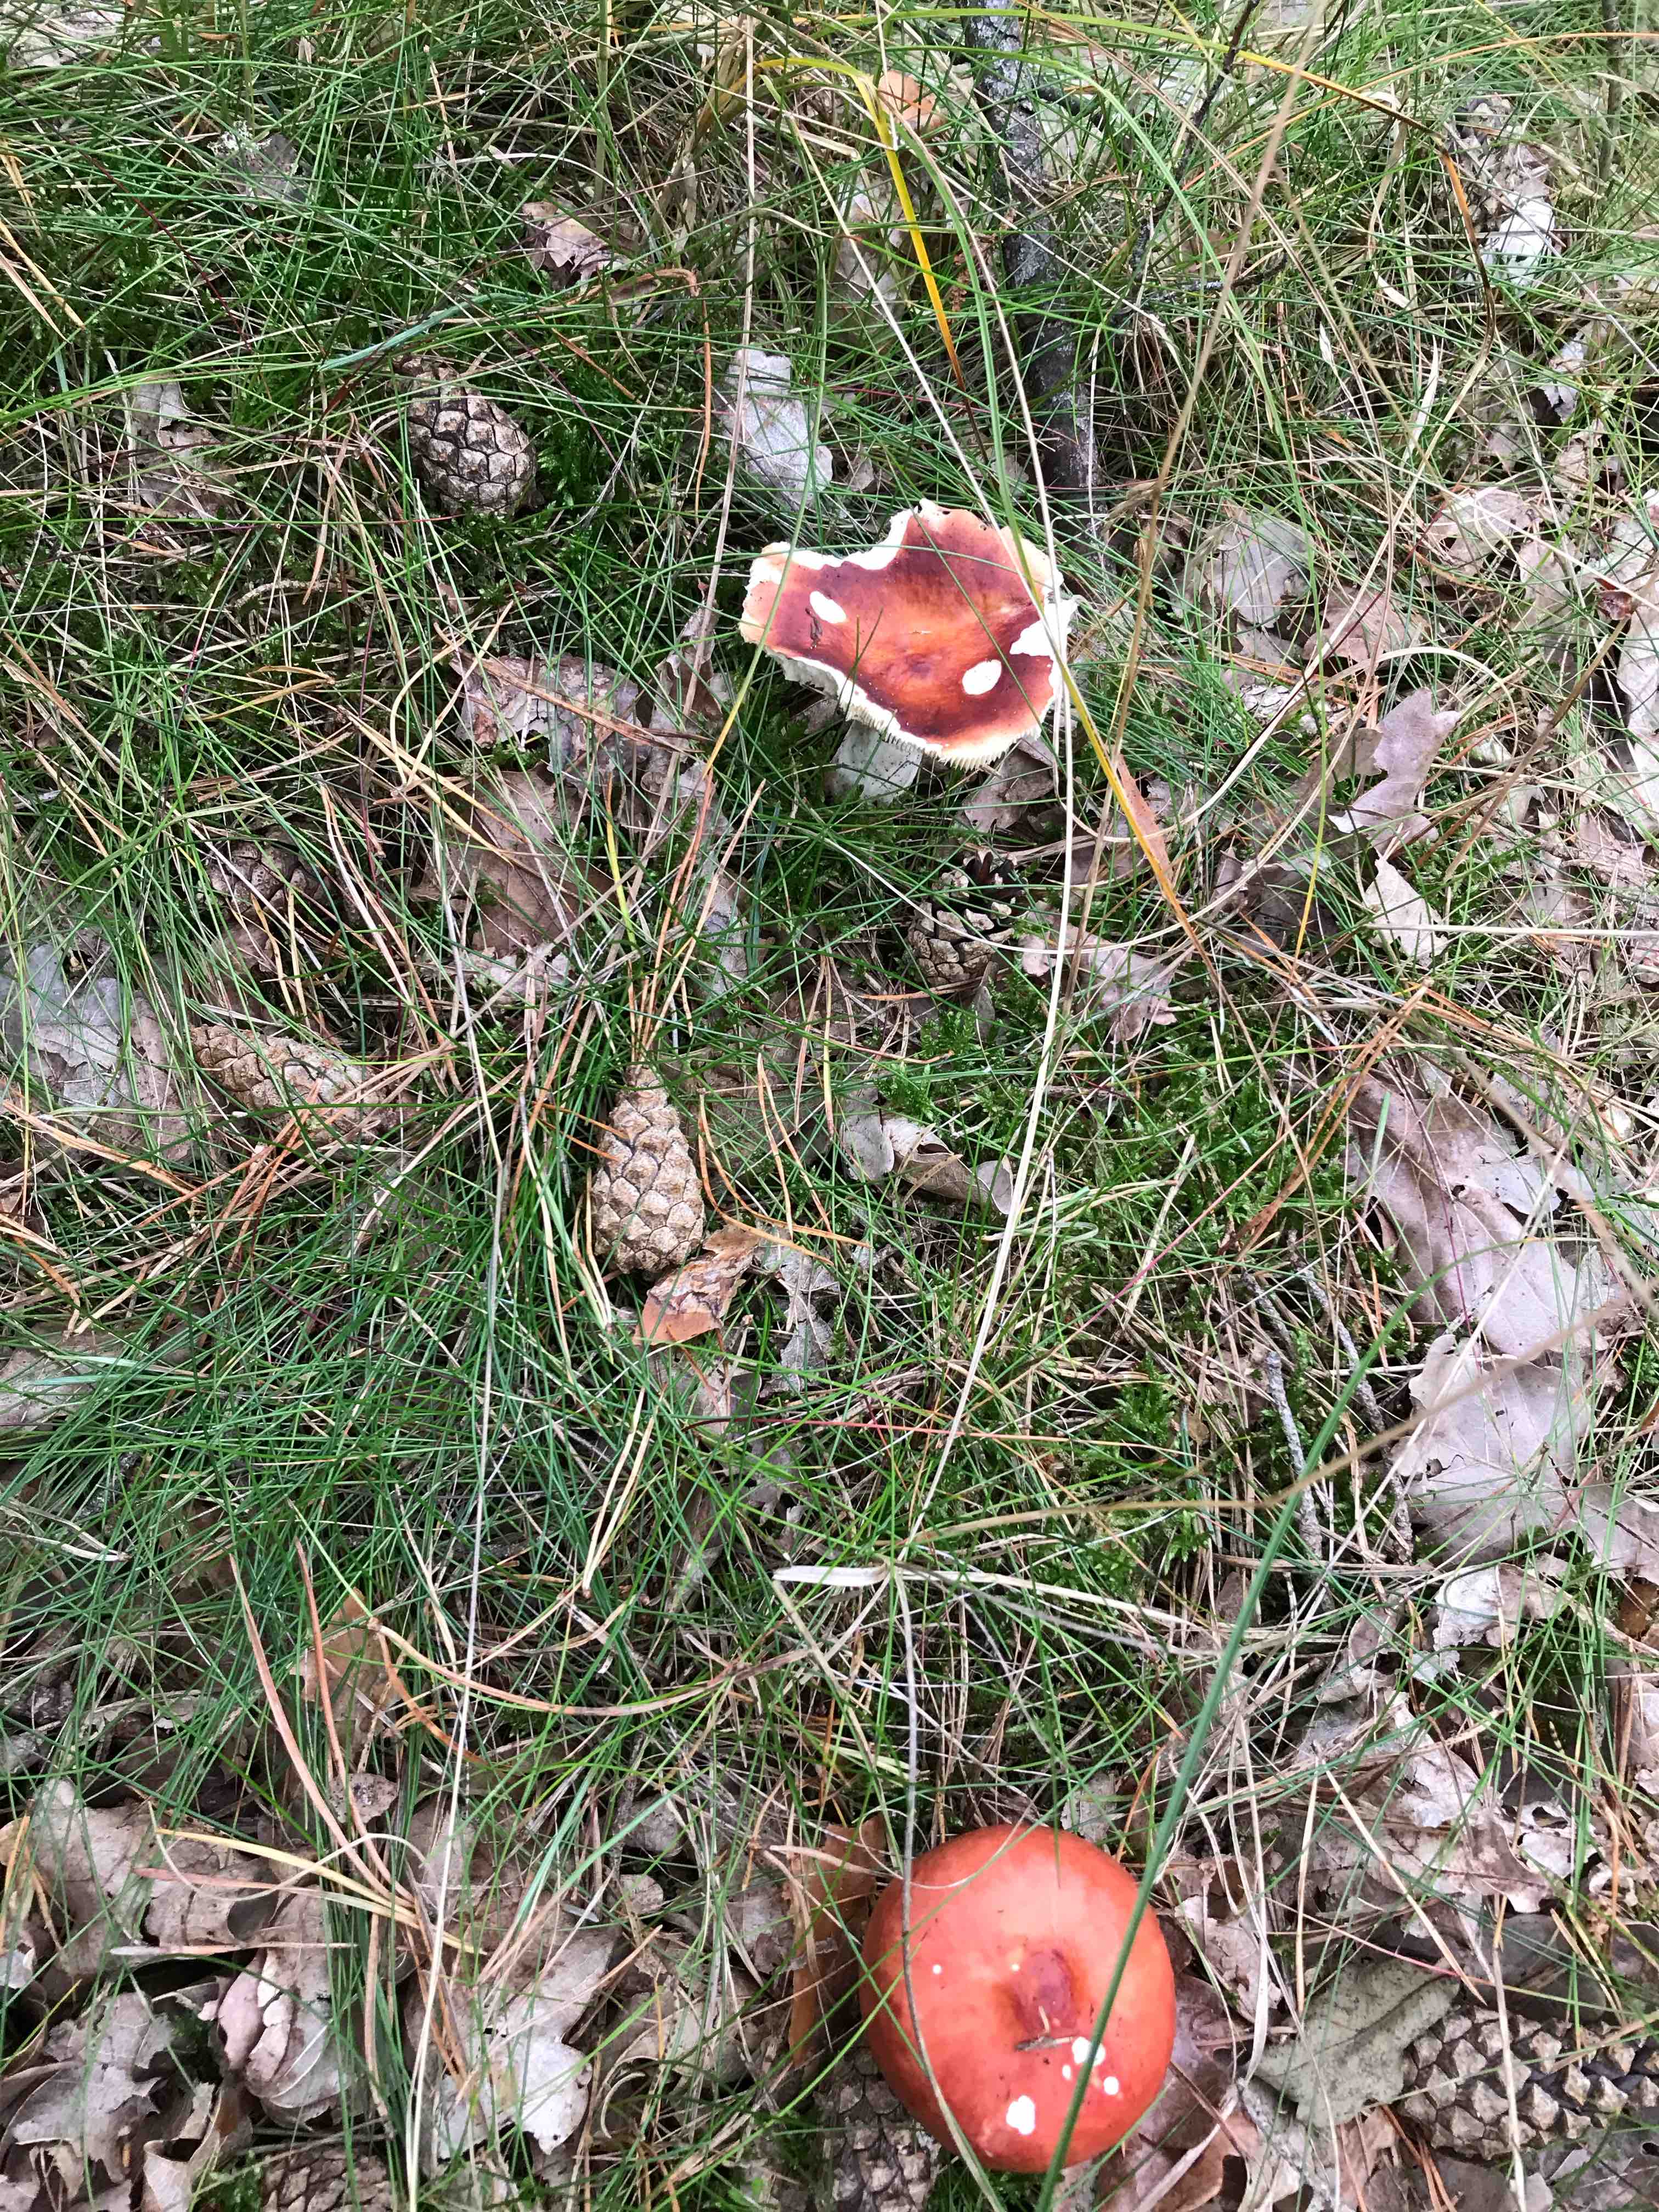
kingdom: Fungi
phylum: Basidiomycota
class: Agaricomycetes
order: Russulales
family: Russulaceae
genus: Russula
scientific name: Russula paludosa
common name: prægtig skørhat
